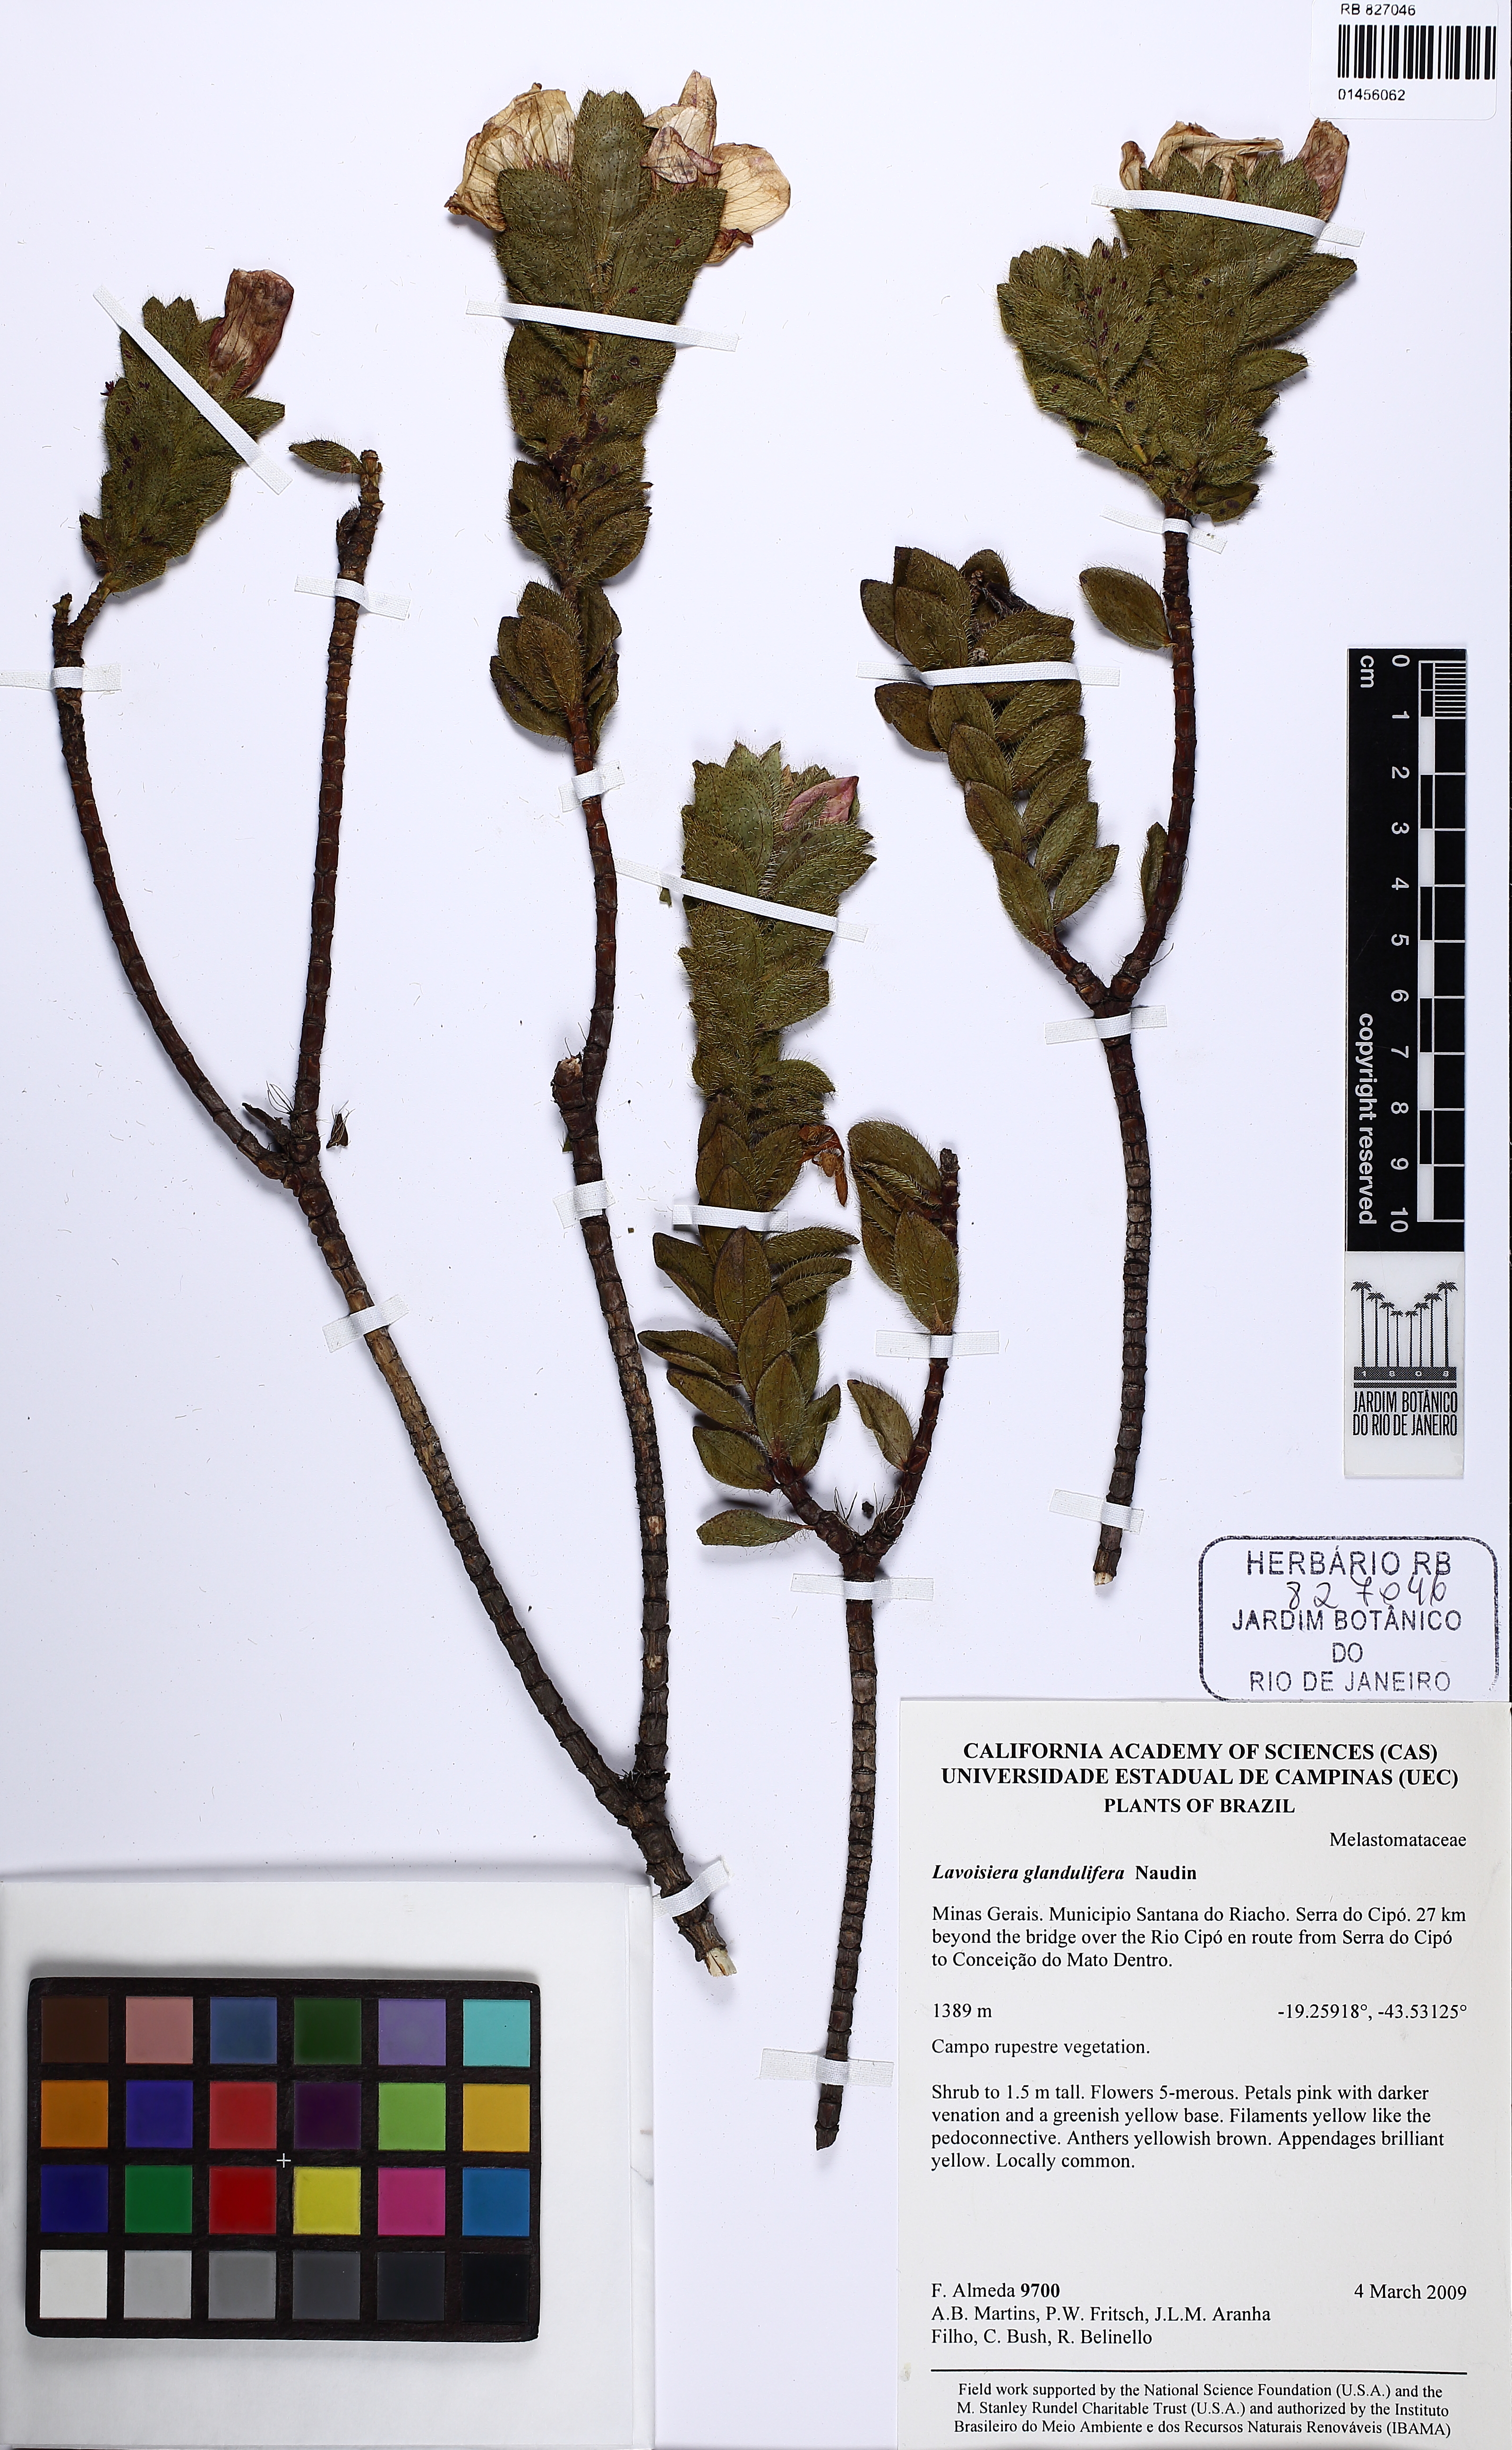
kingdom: Plantae
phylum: Tracheophyta
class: Magnoliopsida
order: Myrtales
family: Melastomataceae
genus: Microlicia
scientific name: Microlicia glandulifolia
